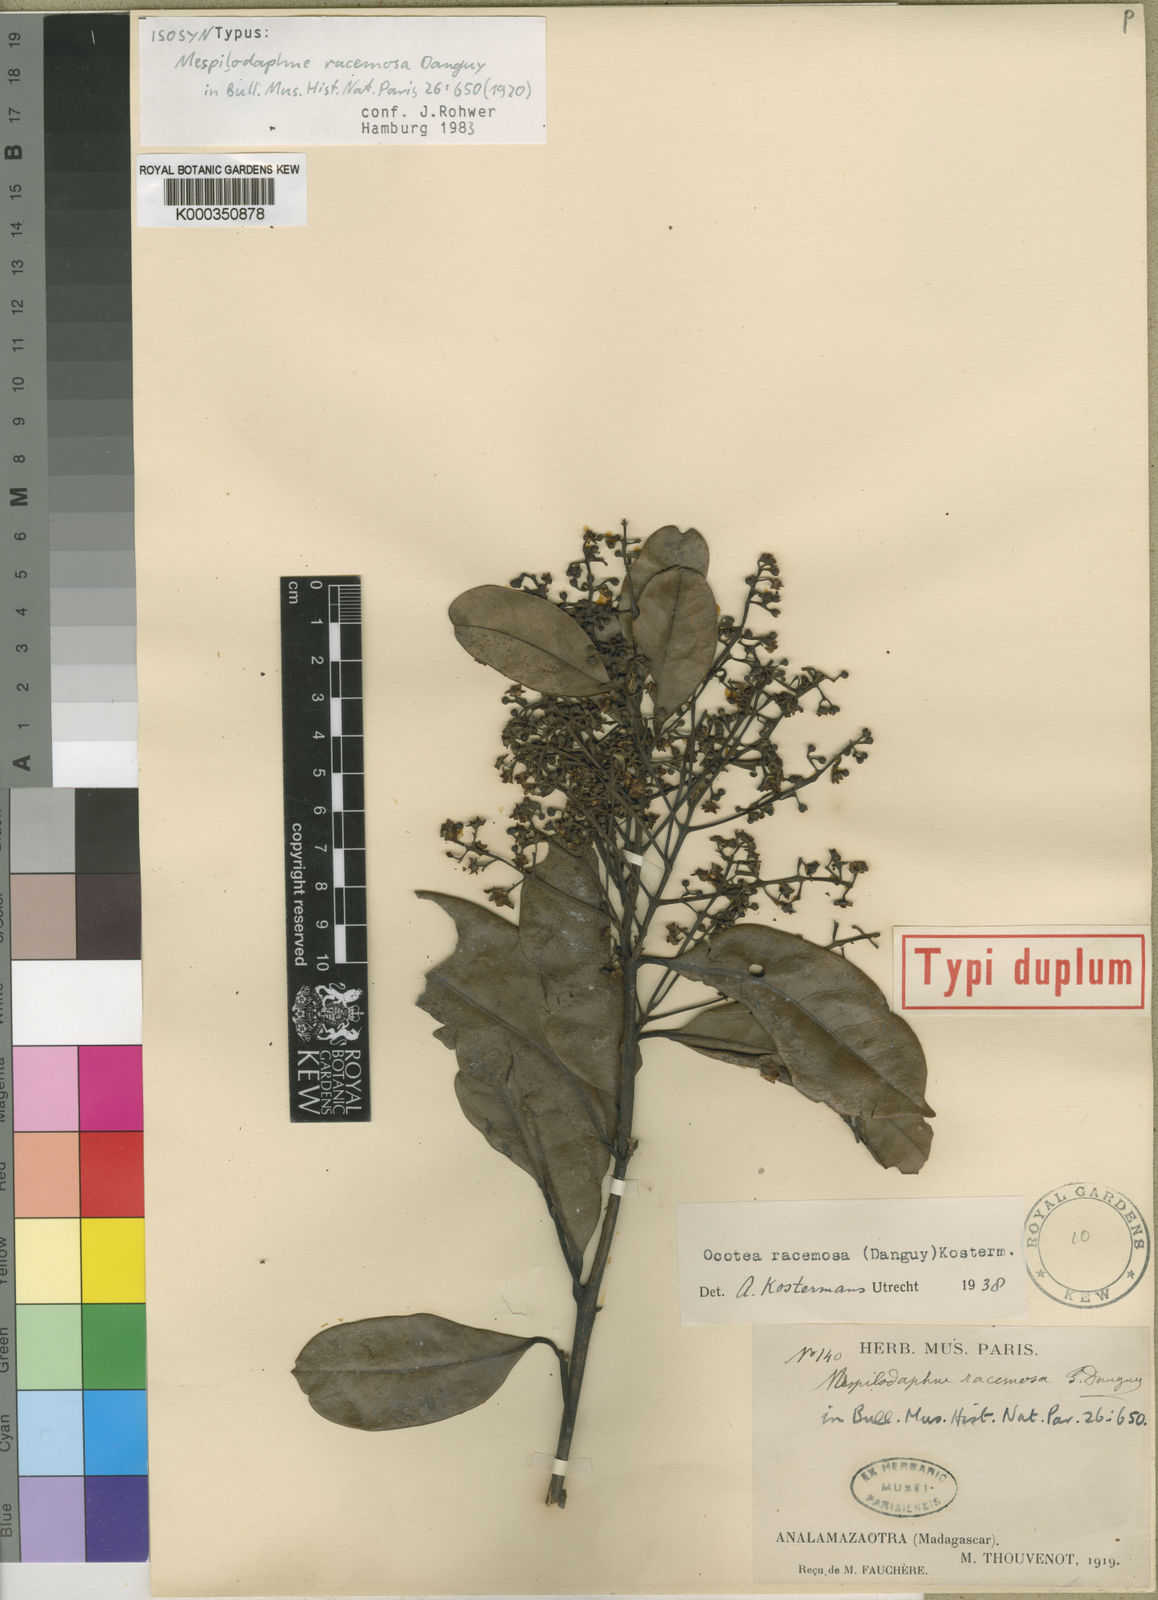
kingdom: Plantae
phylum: Tracheophyta
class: Magnoliopsida
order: Laurales
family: Lauraceae
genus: Mespilodaphne
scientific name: Mespilodaphne racemosa
